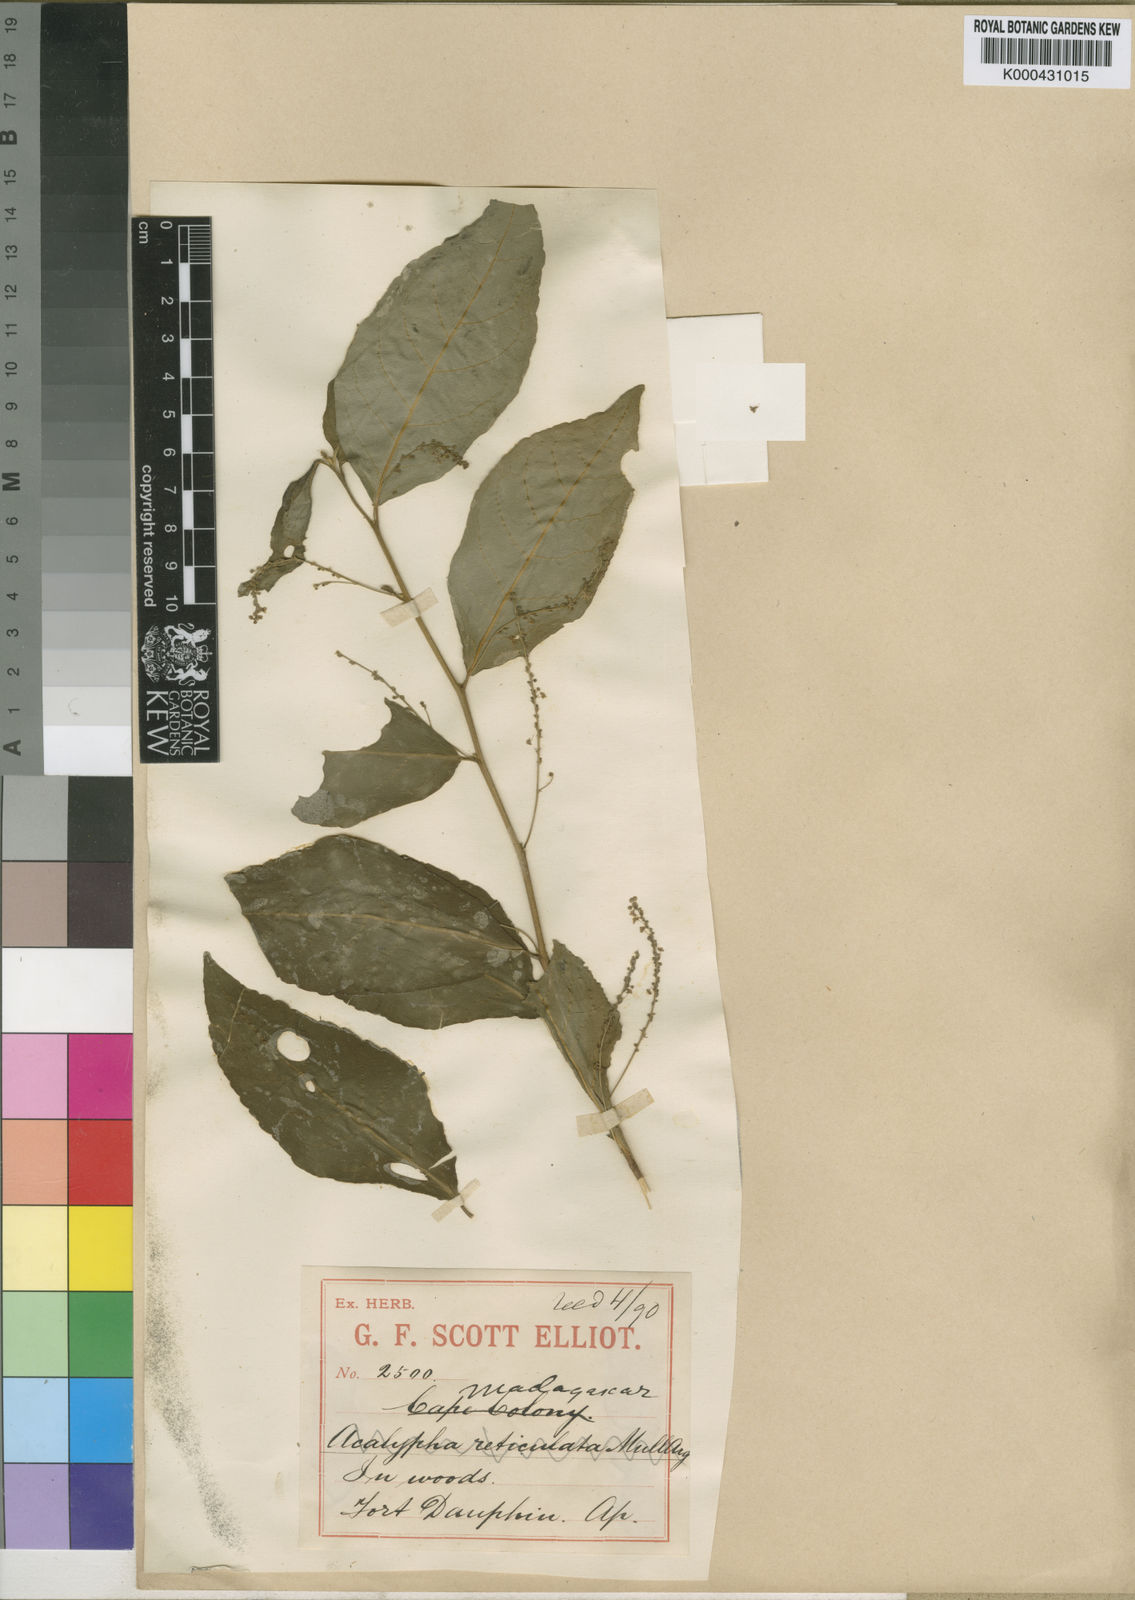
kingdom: Plantae
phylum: Tracheophyta
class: Magnoliopsida
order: Malpighiales
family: Euphorbiaceae
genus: Claoxylon
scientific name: Claoxylon flavum
